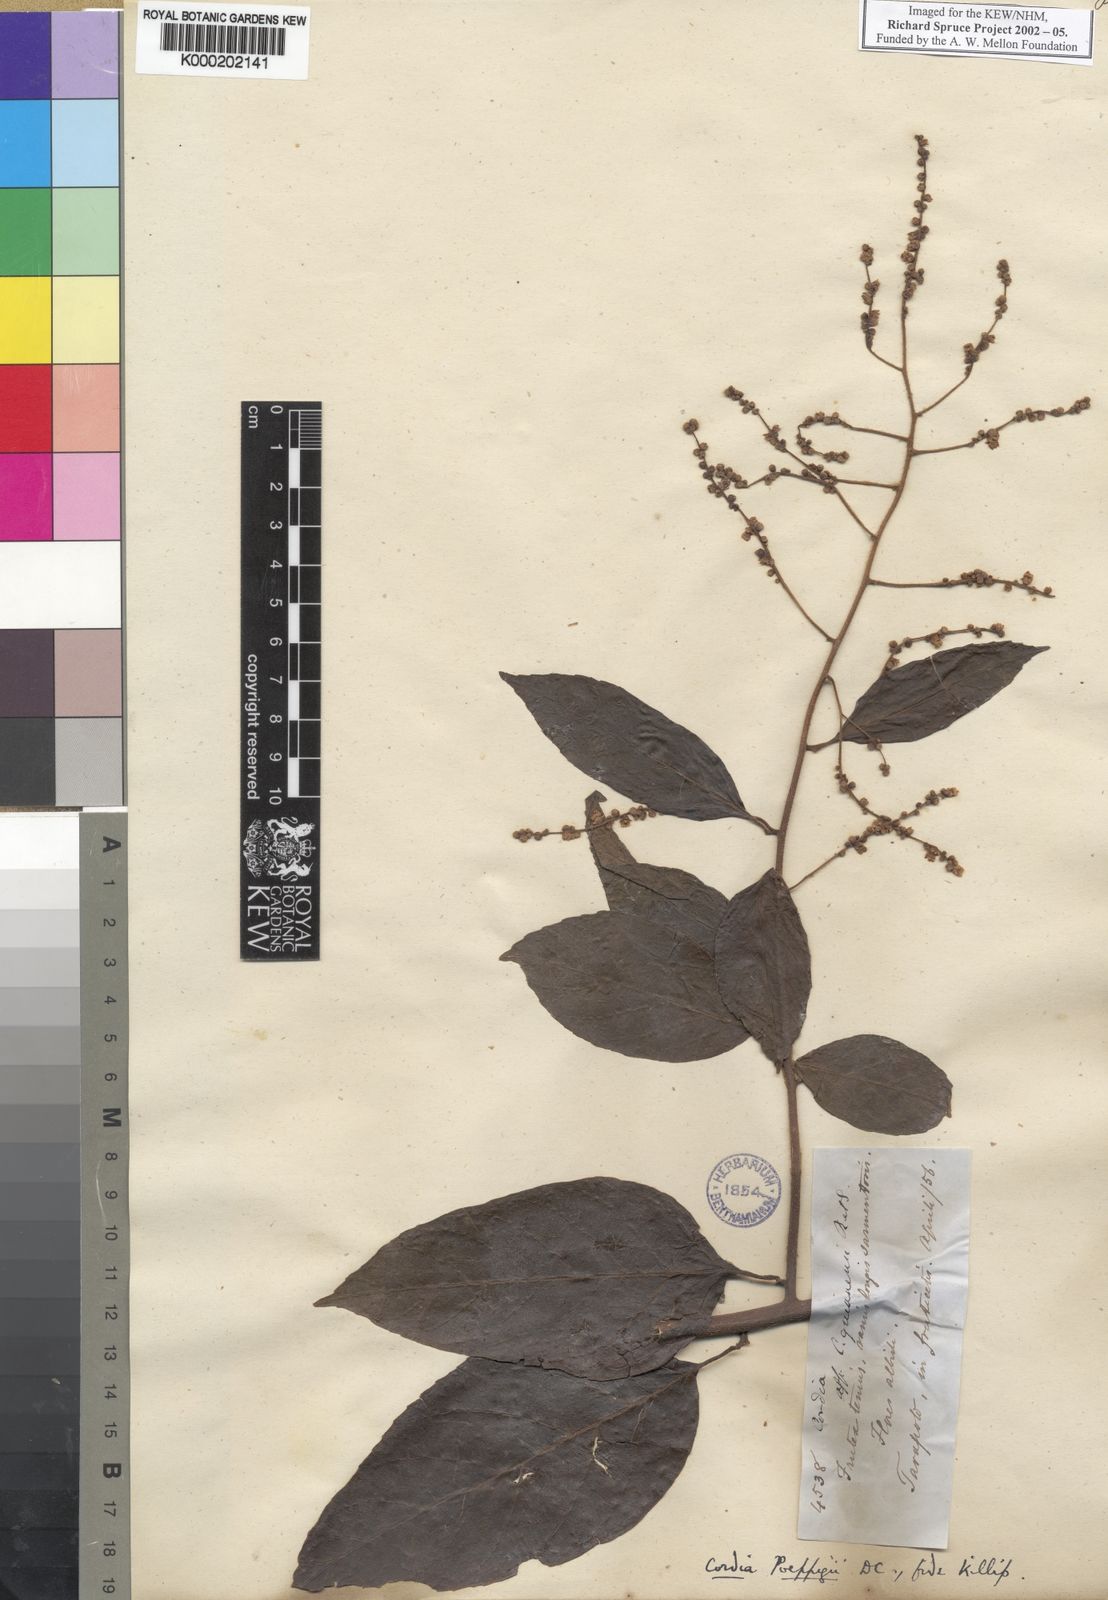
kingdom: Plantae
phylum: Tracheophyta
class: Magnoliopsida
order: Boraginales
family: Cordiaceae
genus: Varronia
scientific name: Varronia spinescens
